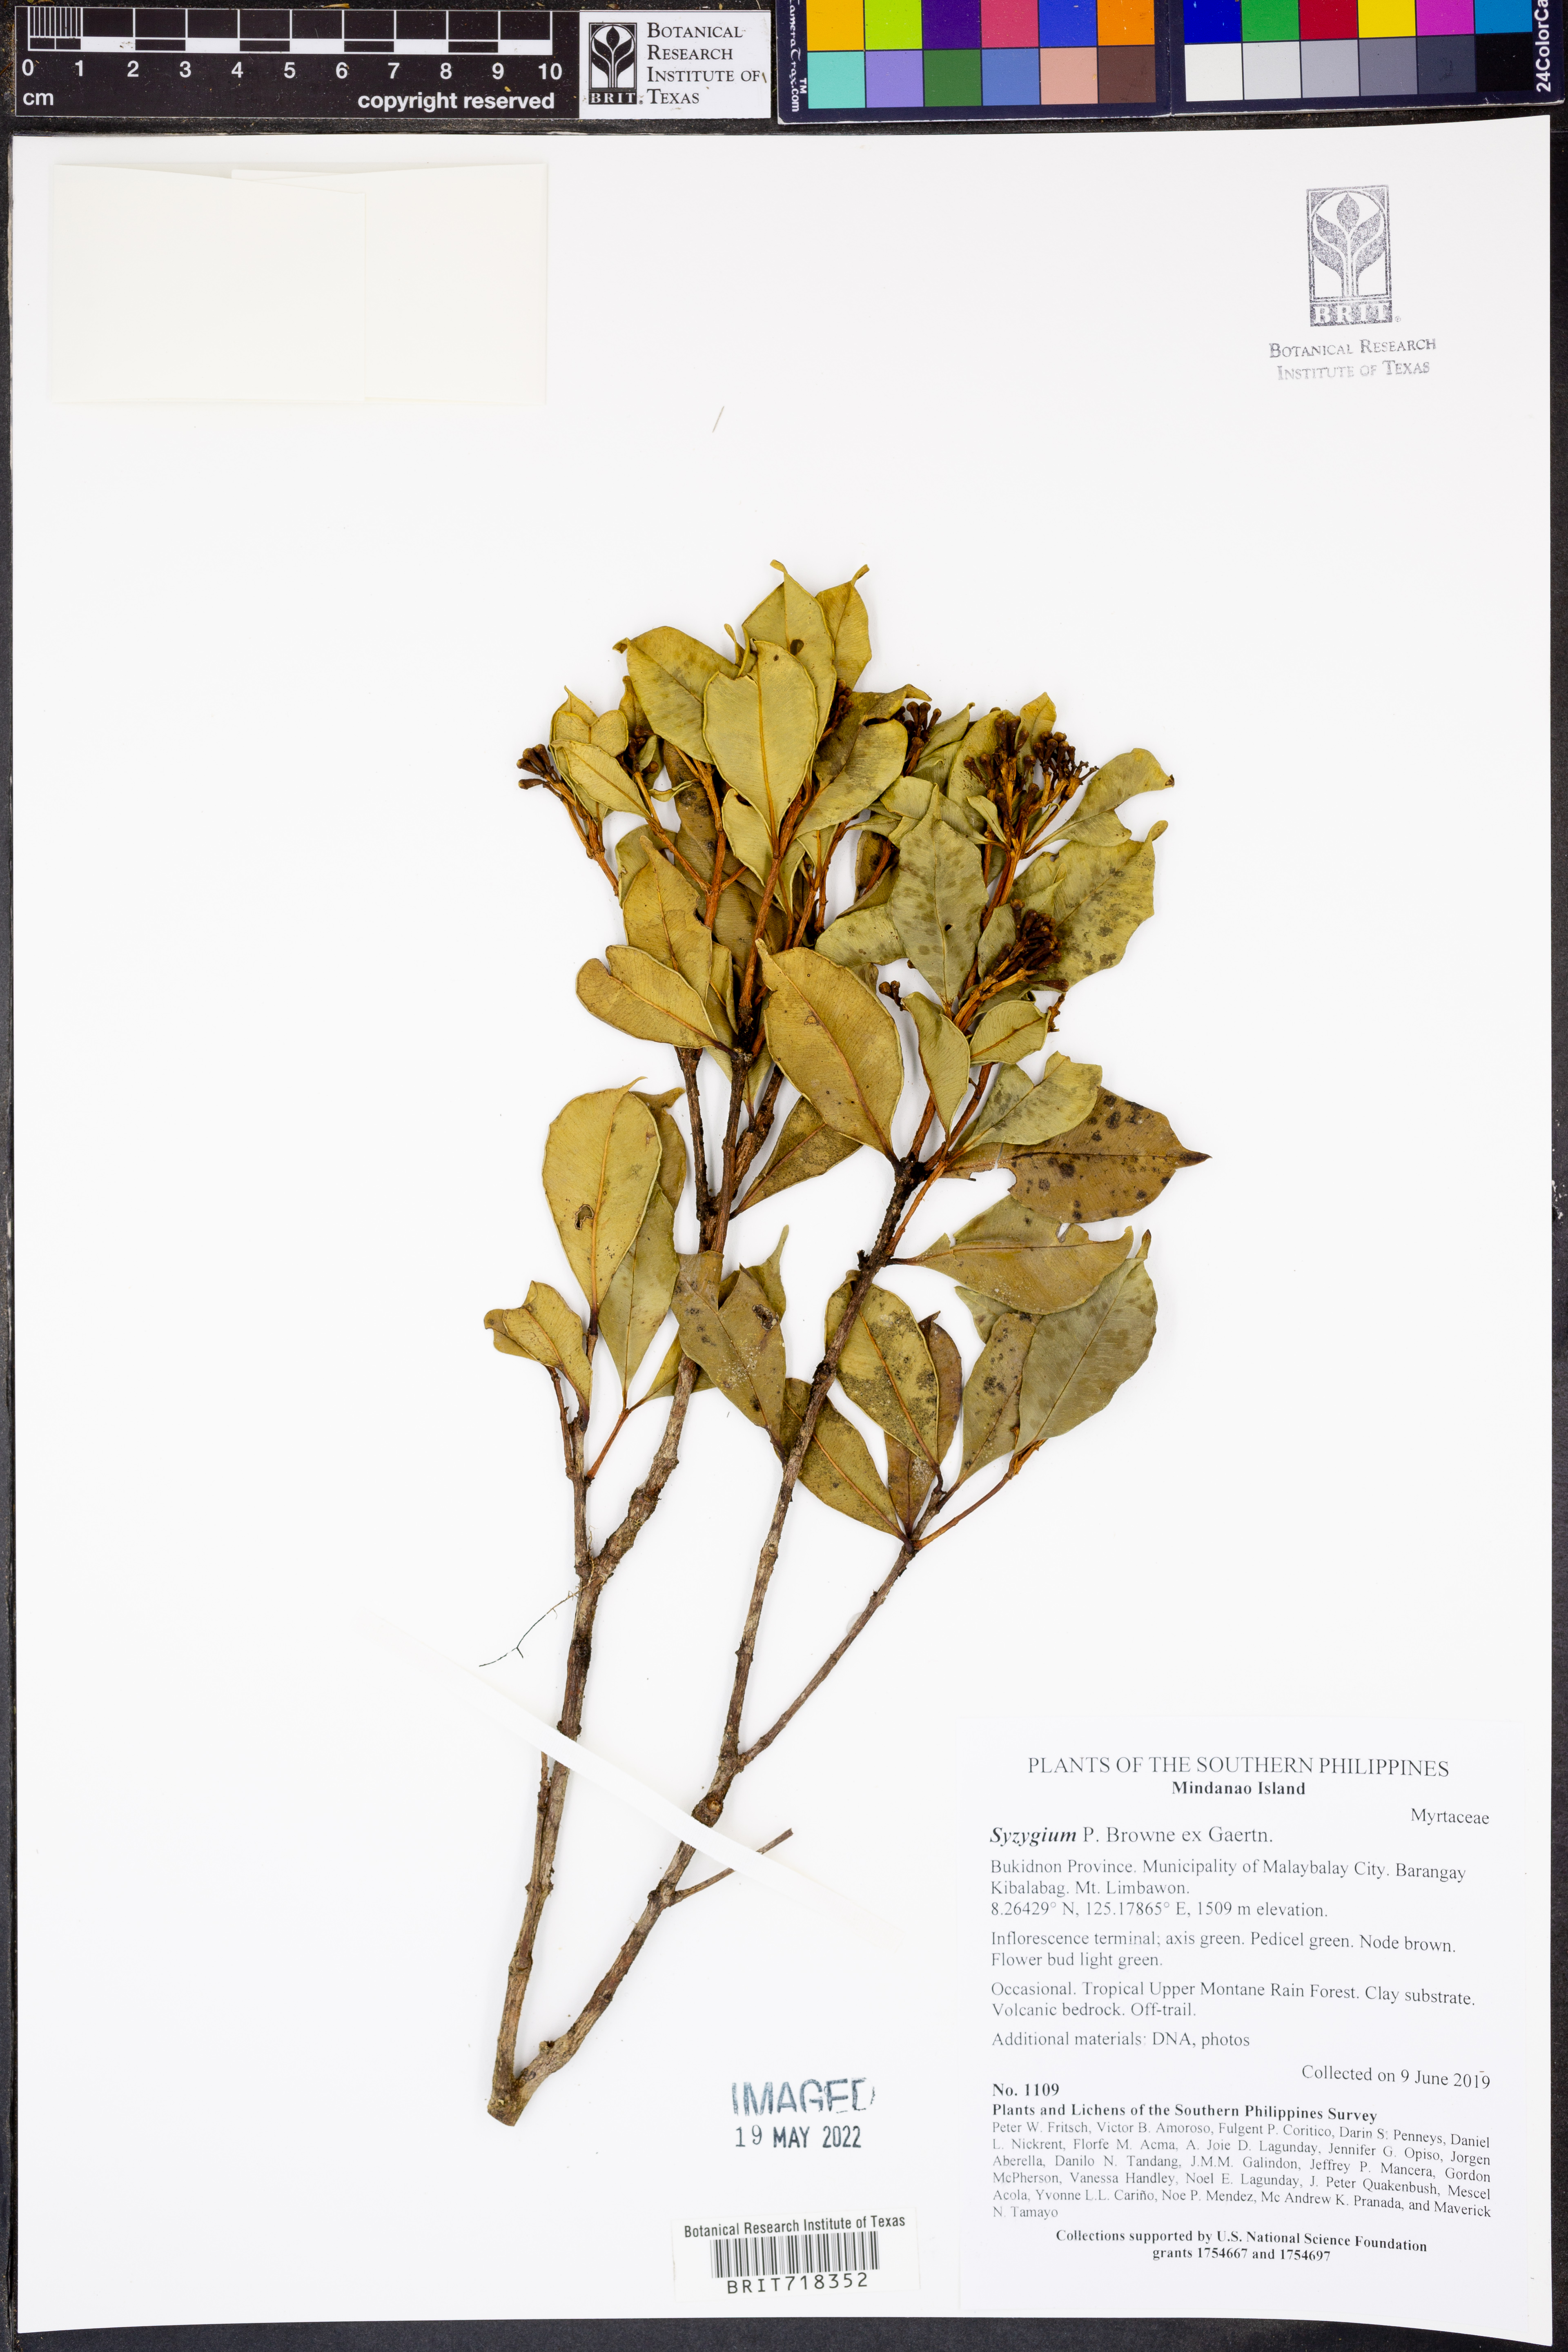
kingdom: Plantae
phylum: Tracheophyta
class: Magnoliopsida
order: Myrtales
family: Myrtaceae
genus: Syzygium
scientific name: Syzygium
